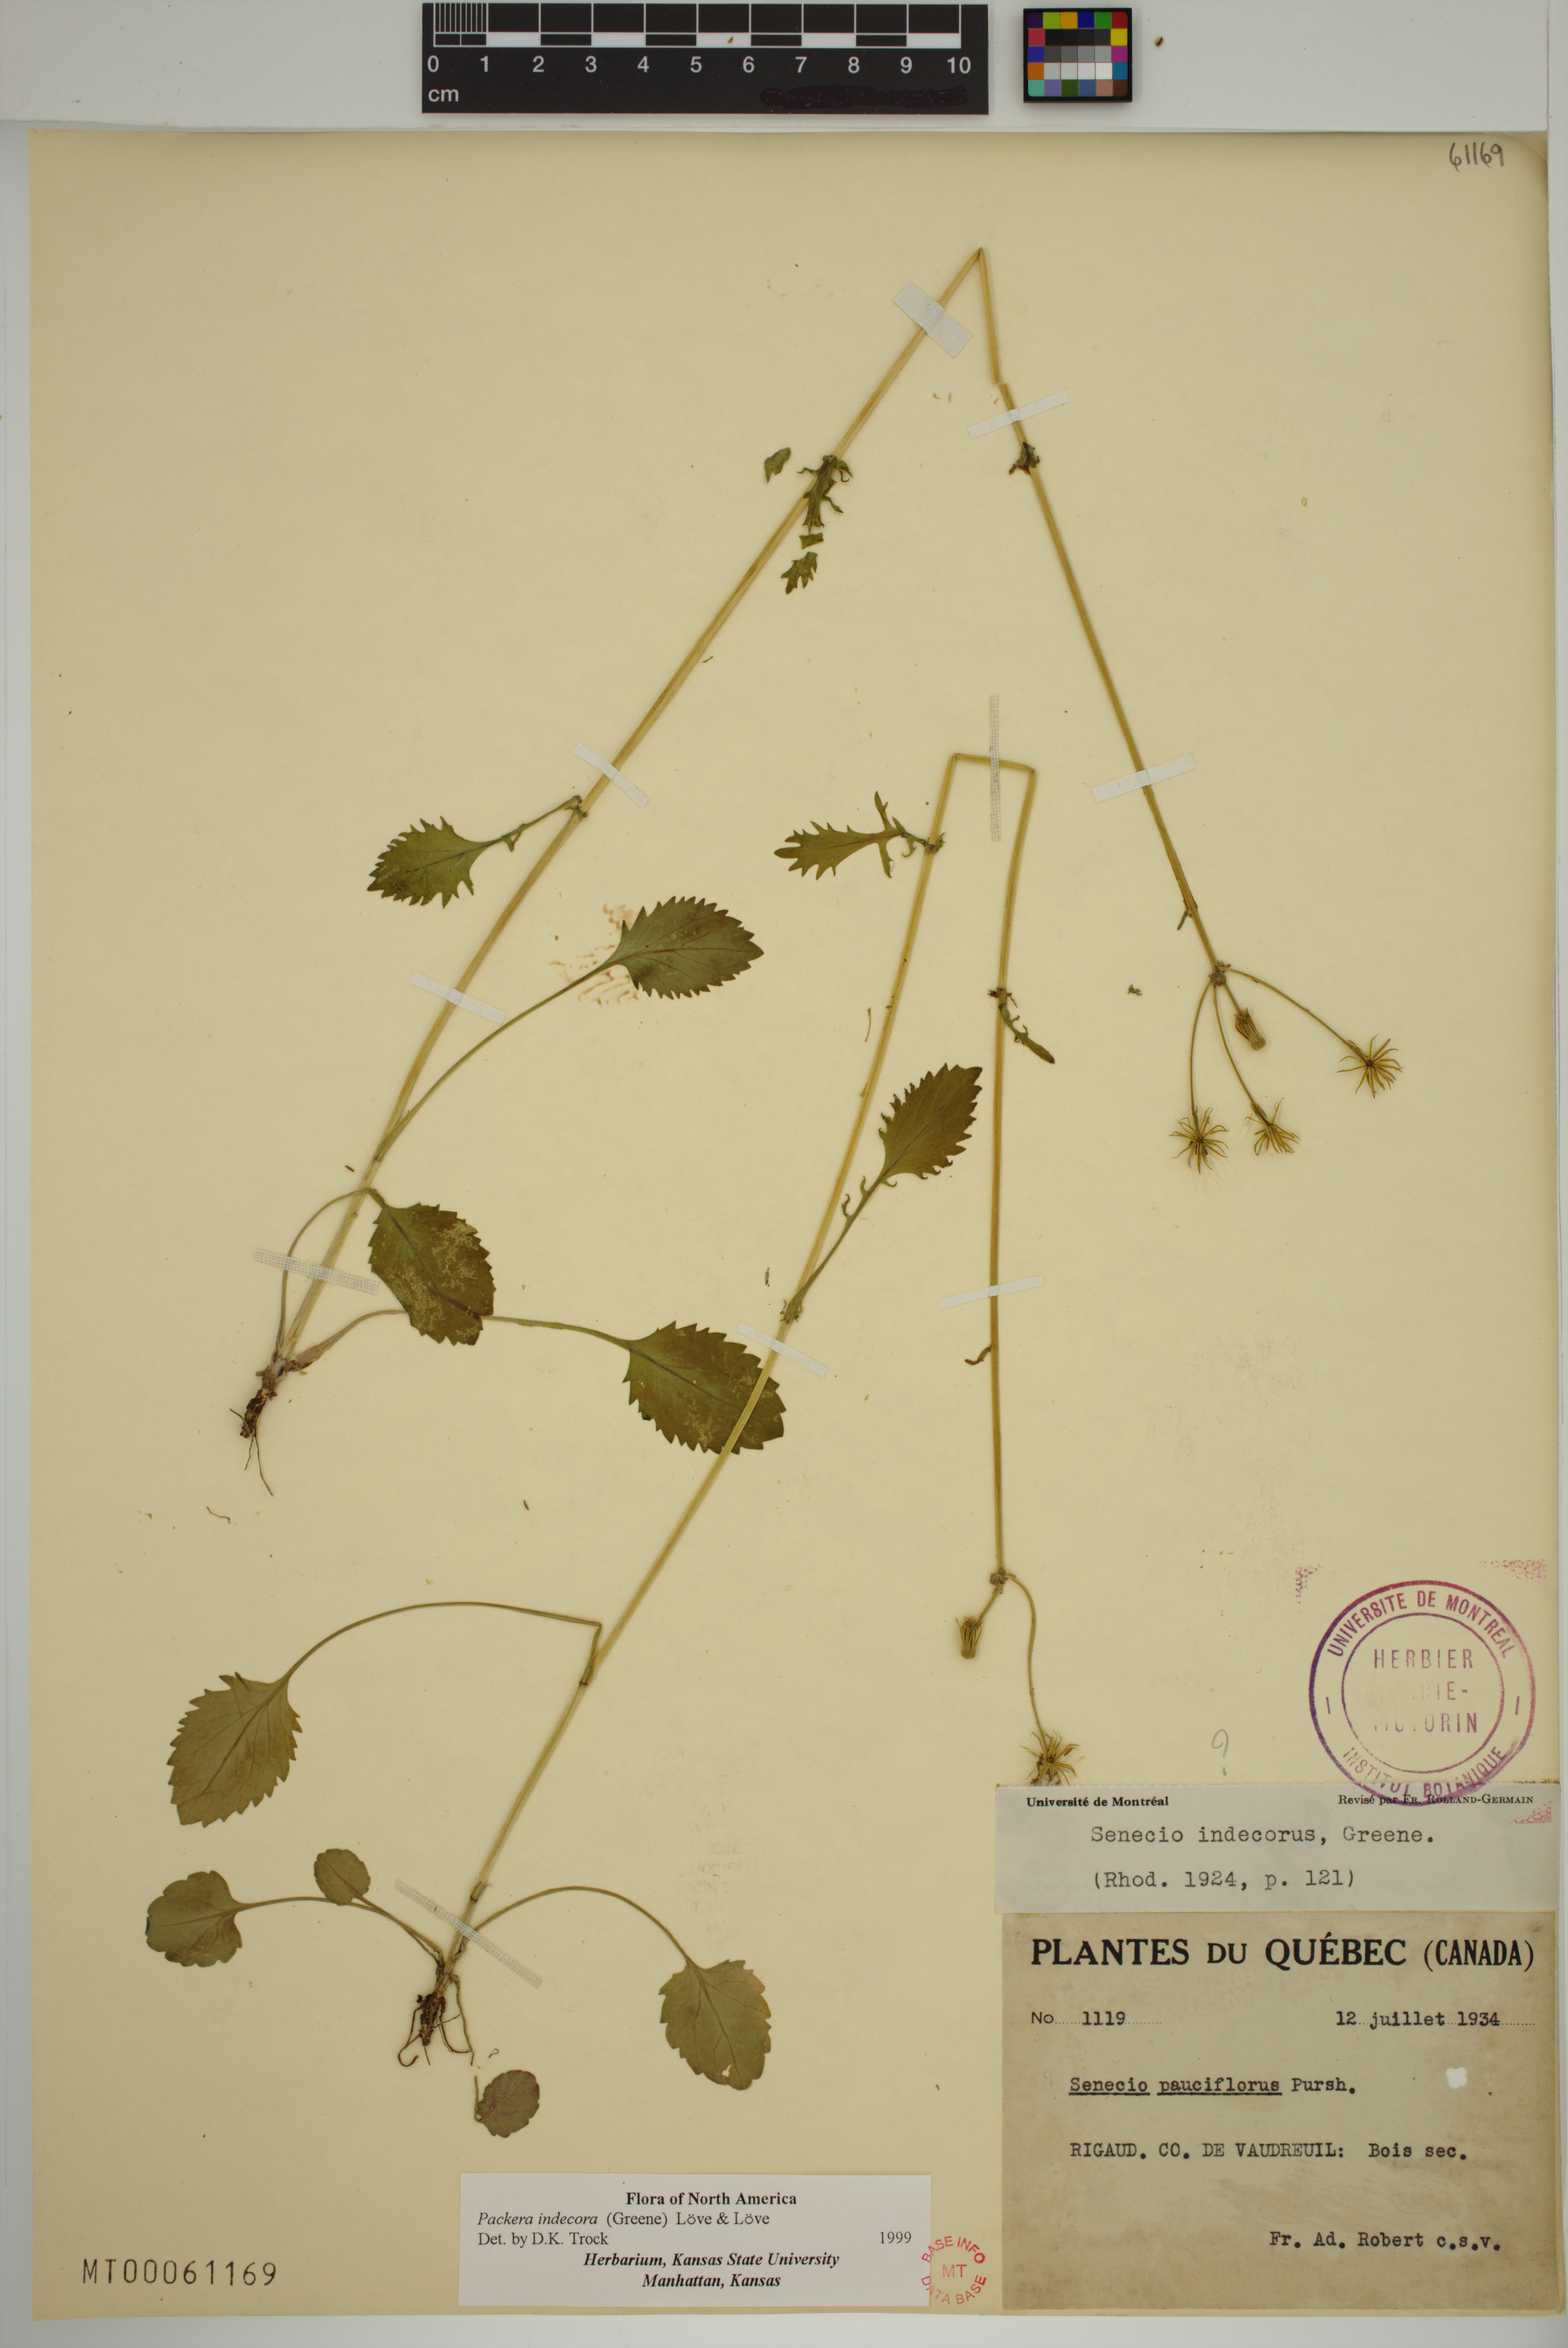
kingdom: Plantae
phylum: Tracheophyta
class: Magnoliopsida
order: Asterales
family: Asteraceae
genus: Packera
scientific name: Packera indecora
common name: Elegant groundsel
